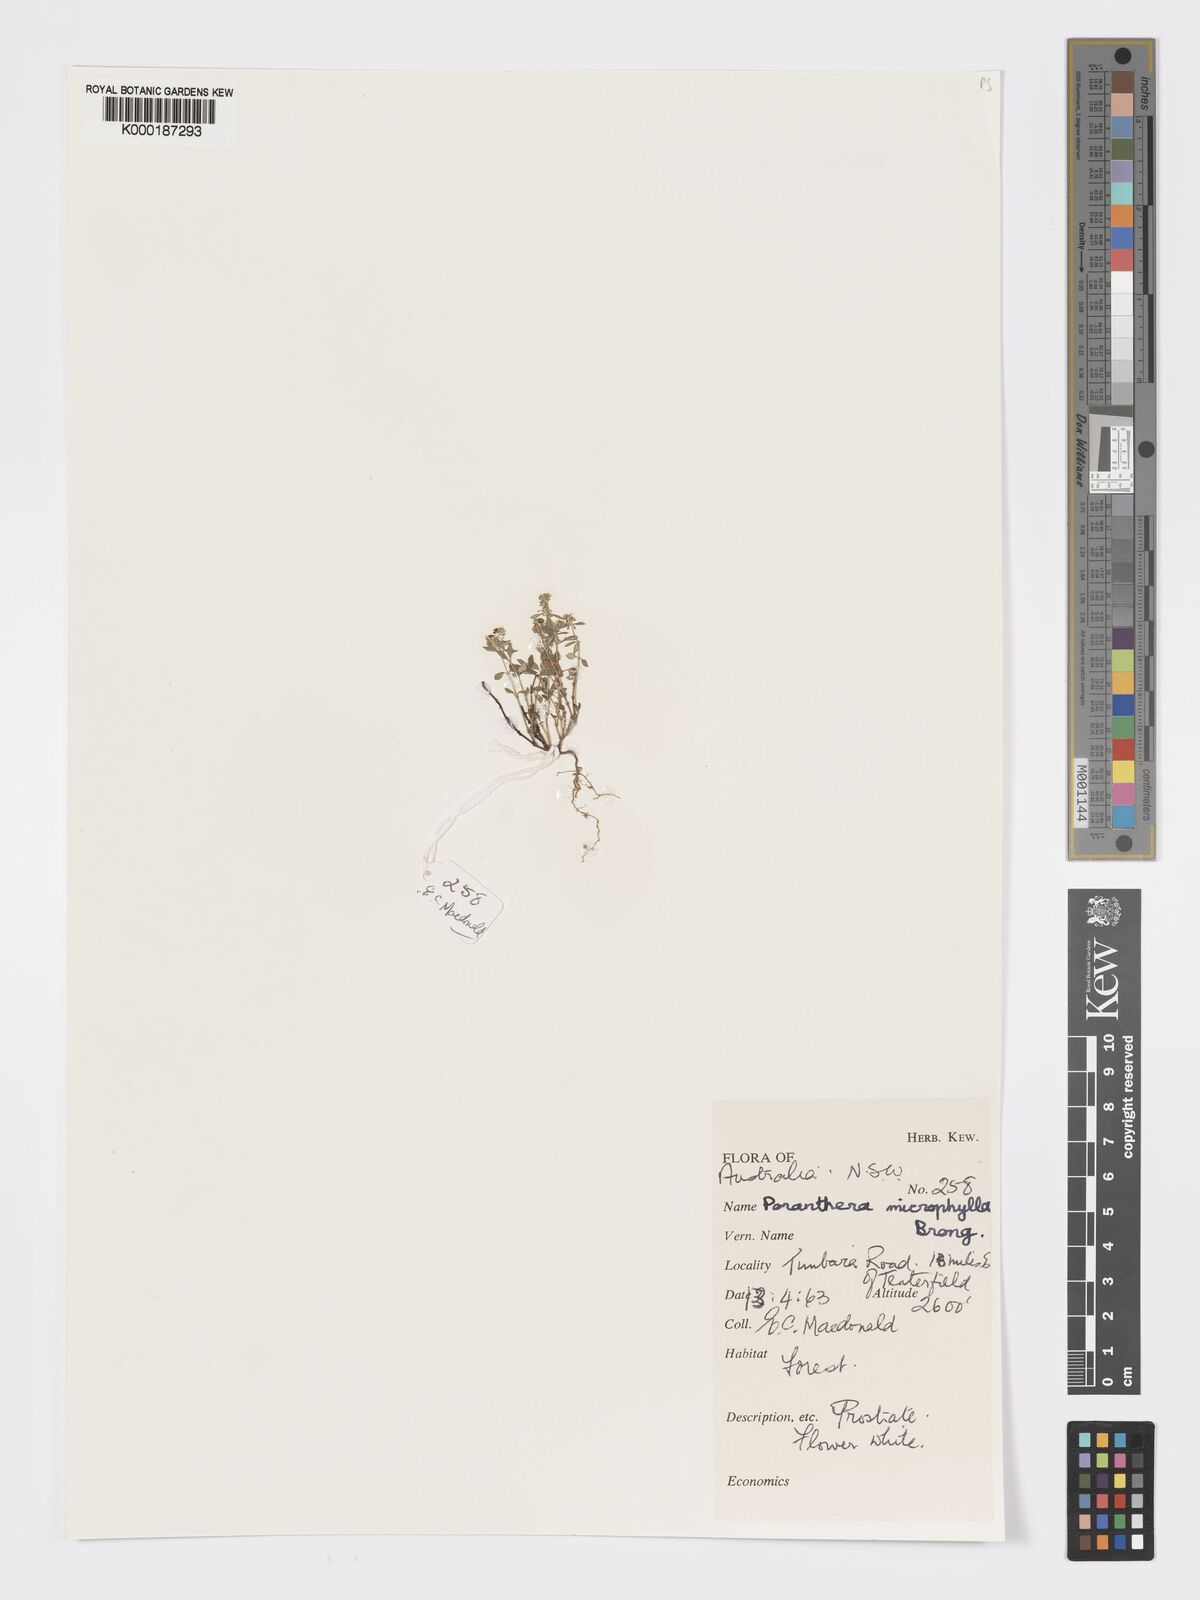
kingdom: Plantae
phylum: Tracheophyta
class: Magnoliopsida
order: Malpighiales
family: Phyllanthaceae
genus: Poranthera
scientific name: Poranthera microphylla
